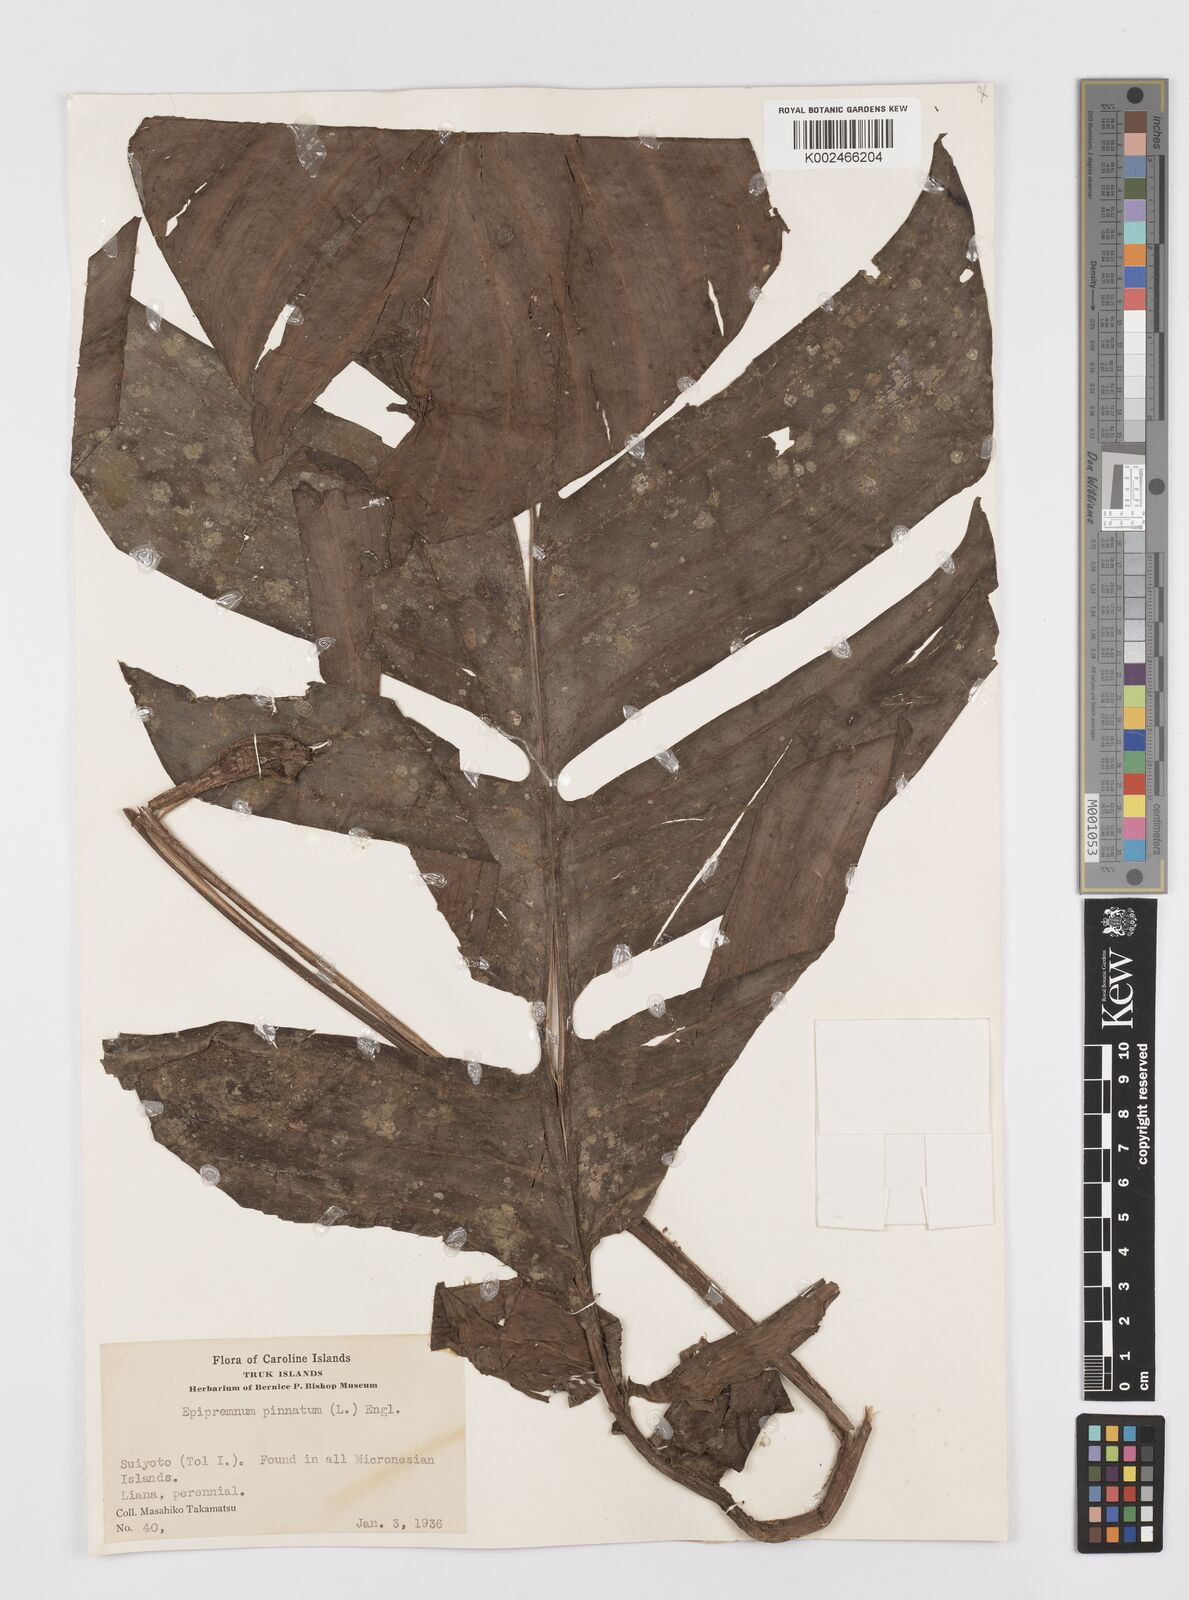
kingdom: Plantae
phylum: Tracheophyta
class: Liliopsida
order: Alismatales
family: Araceae
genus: Rhaphidophora
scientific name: Rhaphidophora korthalsii
